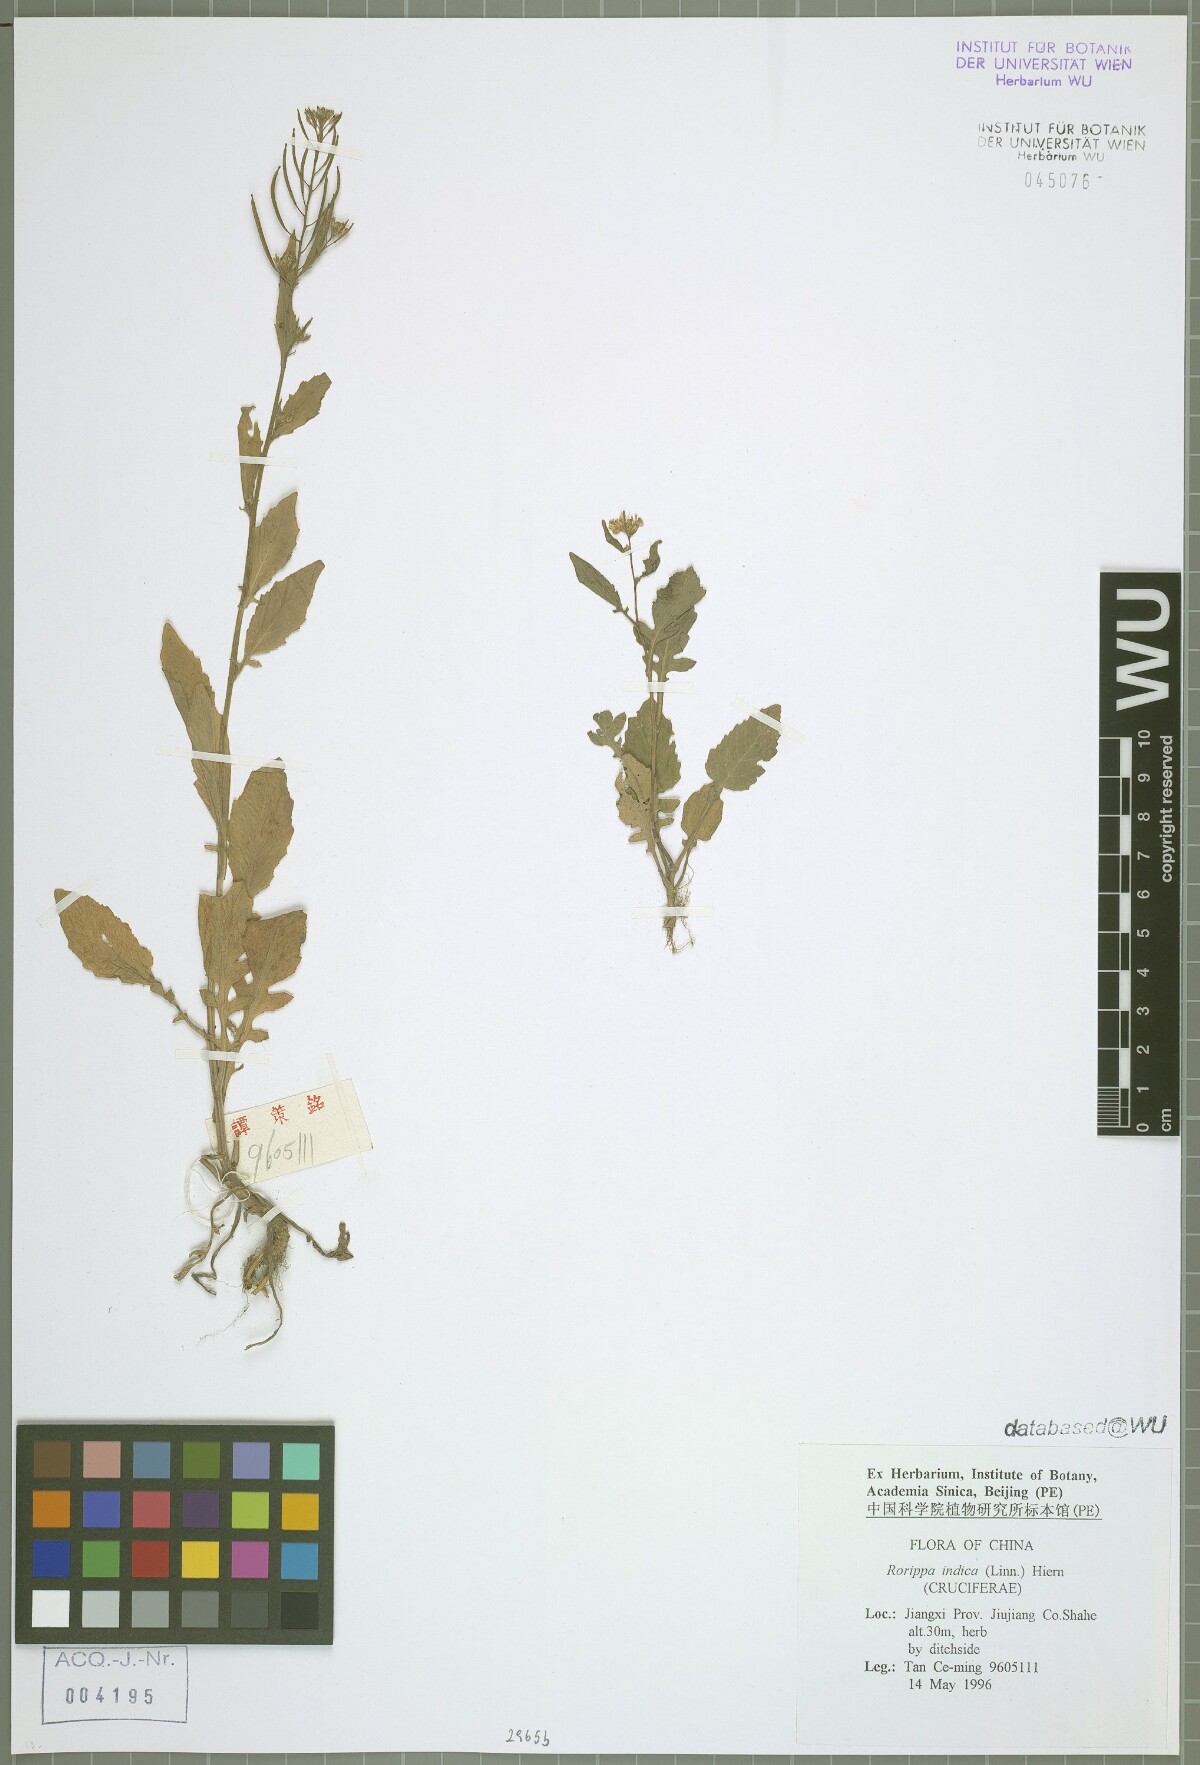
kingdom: Plantae
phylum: Tracheophyta
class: Magnoliopsida
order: Brassicales
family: Brassicaceae
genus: Rorippa
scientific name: Rorippa indica
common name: Variableleaf yellowcress
